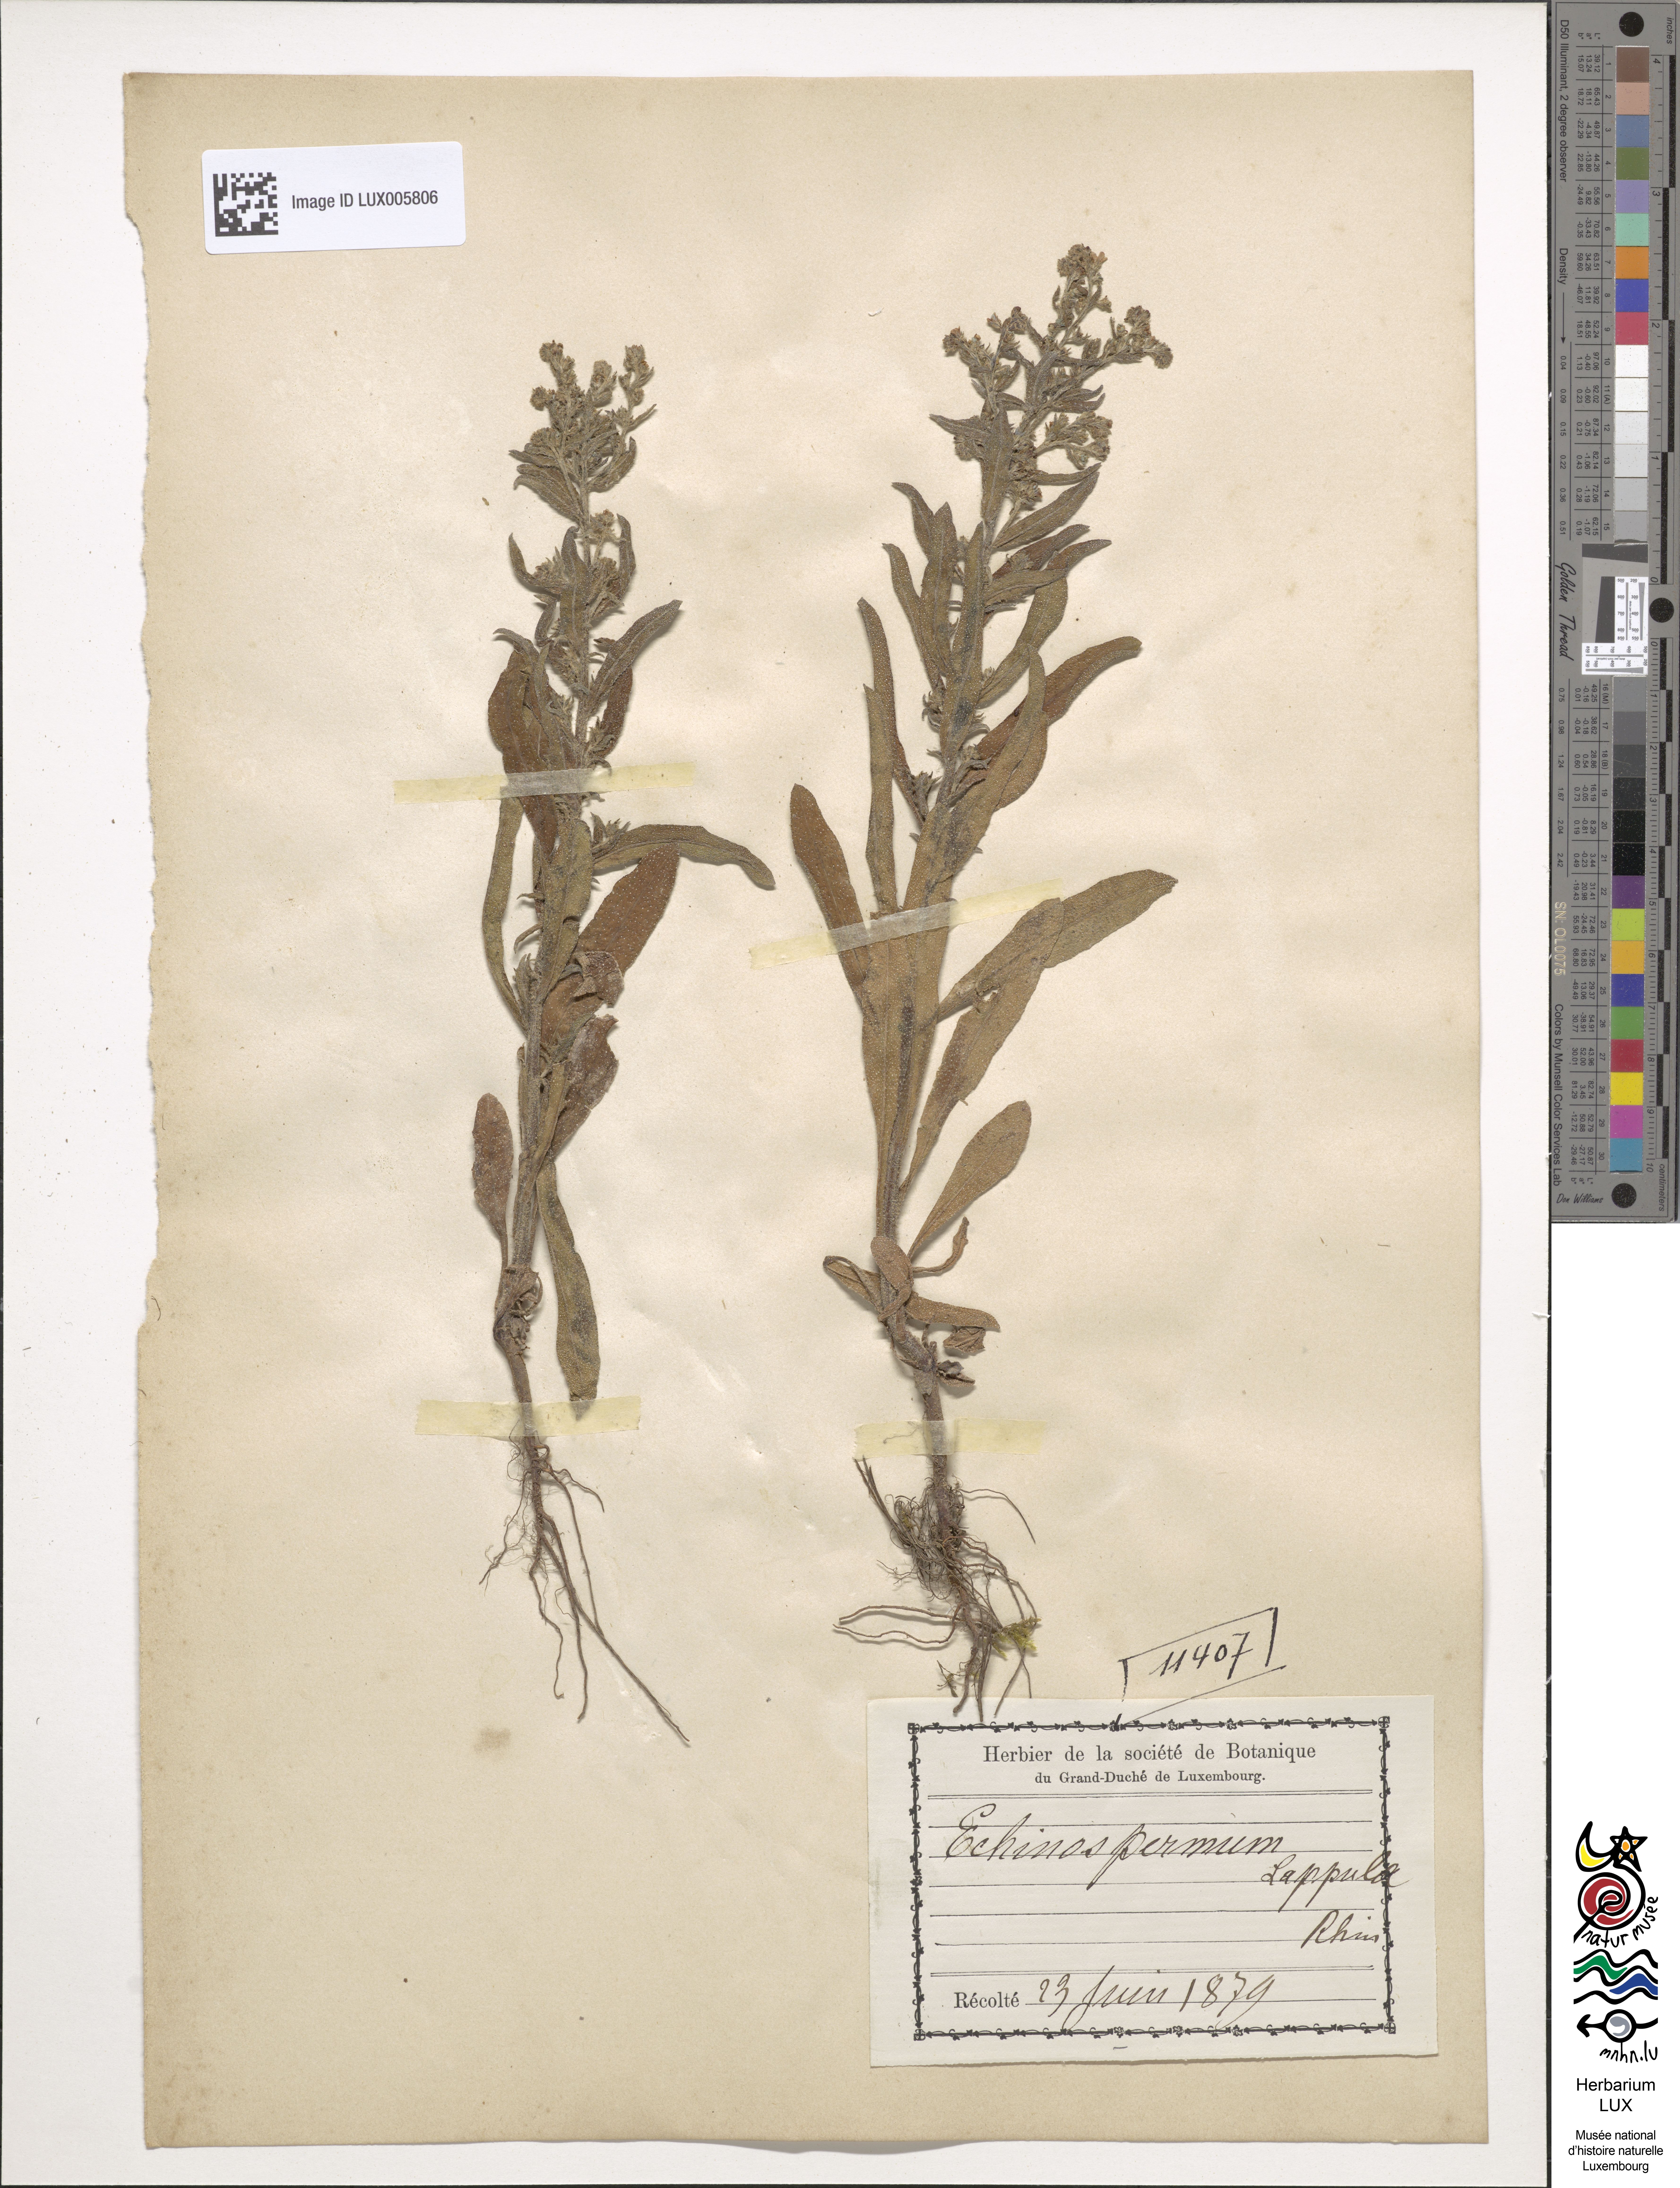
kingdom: Plantae
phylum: Tracheophyta
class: Magnoliopsida
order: Boraginales
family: Boraginaceae
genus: Lappula
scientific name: Lappula squarrosa
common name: European stickseed
